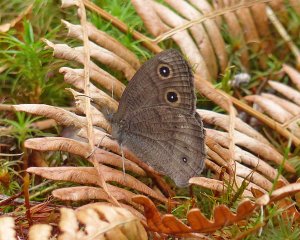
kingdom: Animalia
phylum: Arthropoda
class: Insecta
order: Lepidoptera
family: Nymphalidae
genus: Cercyonis
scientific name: Cercyonis pegala
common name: Common Wood-Nymph
